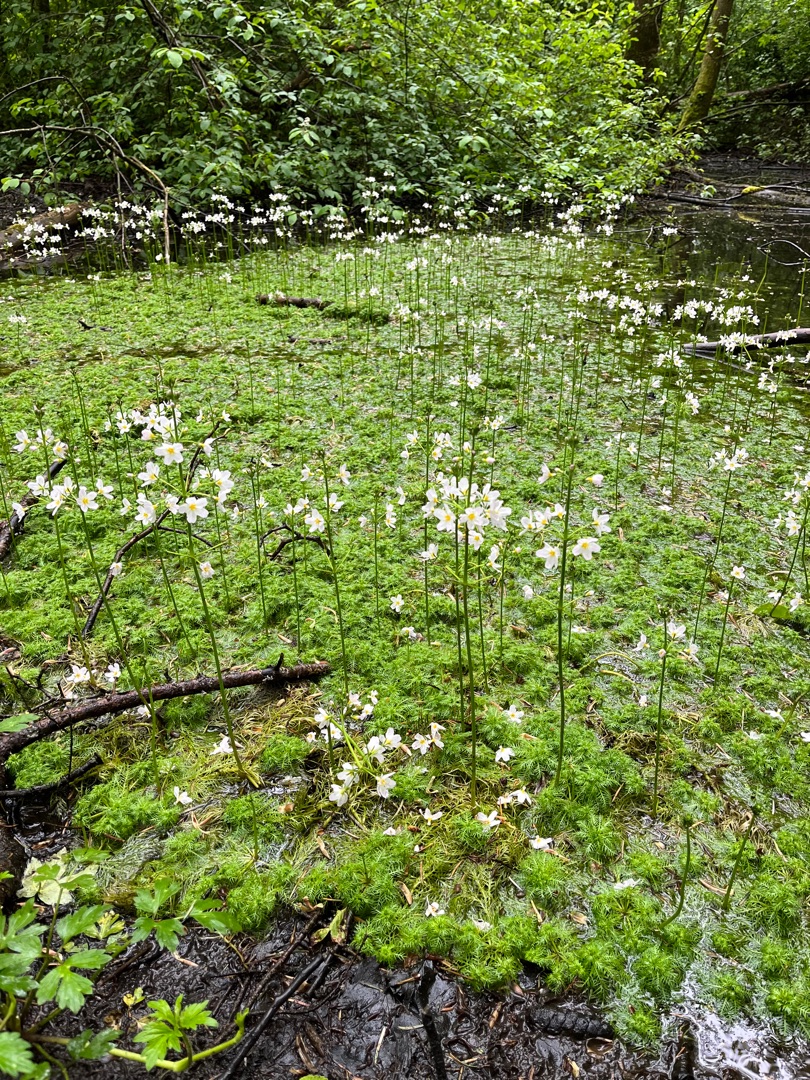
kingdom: Plantae
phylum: Tracheophyta
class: Magnoliopsida
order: Ericales
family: Primulaceae
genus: Hottonia
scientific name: Hottonia palustris
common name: Vandrøllike
